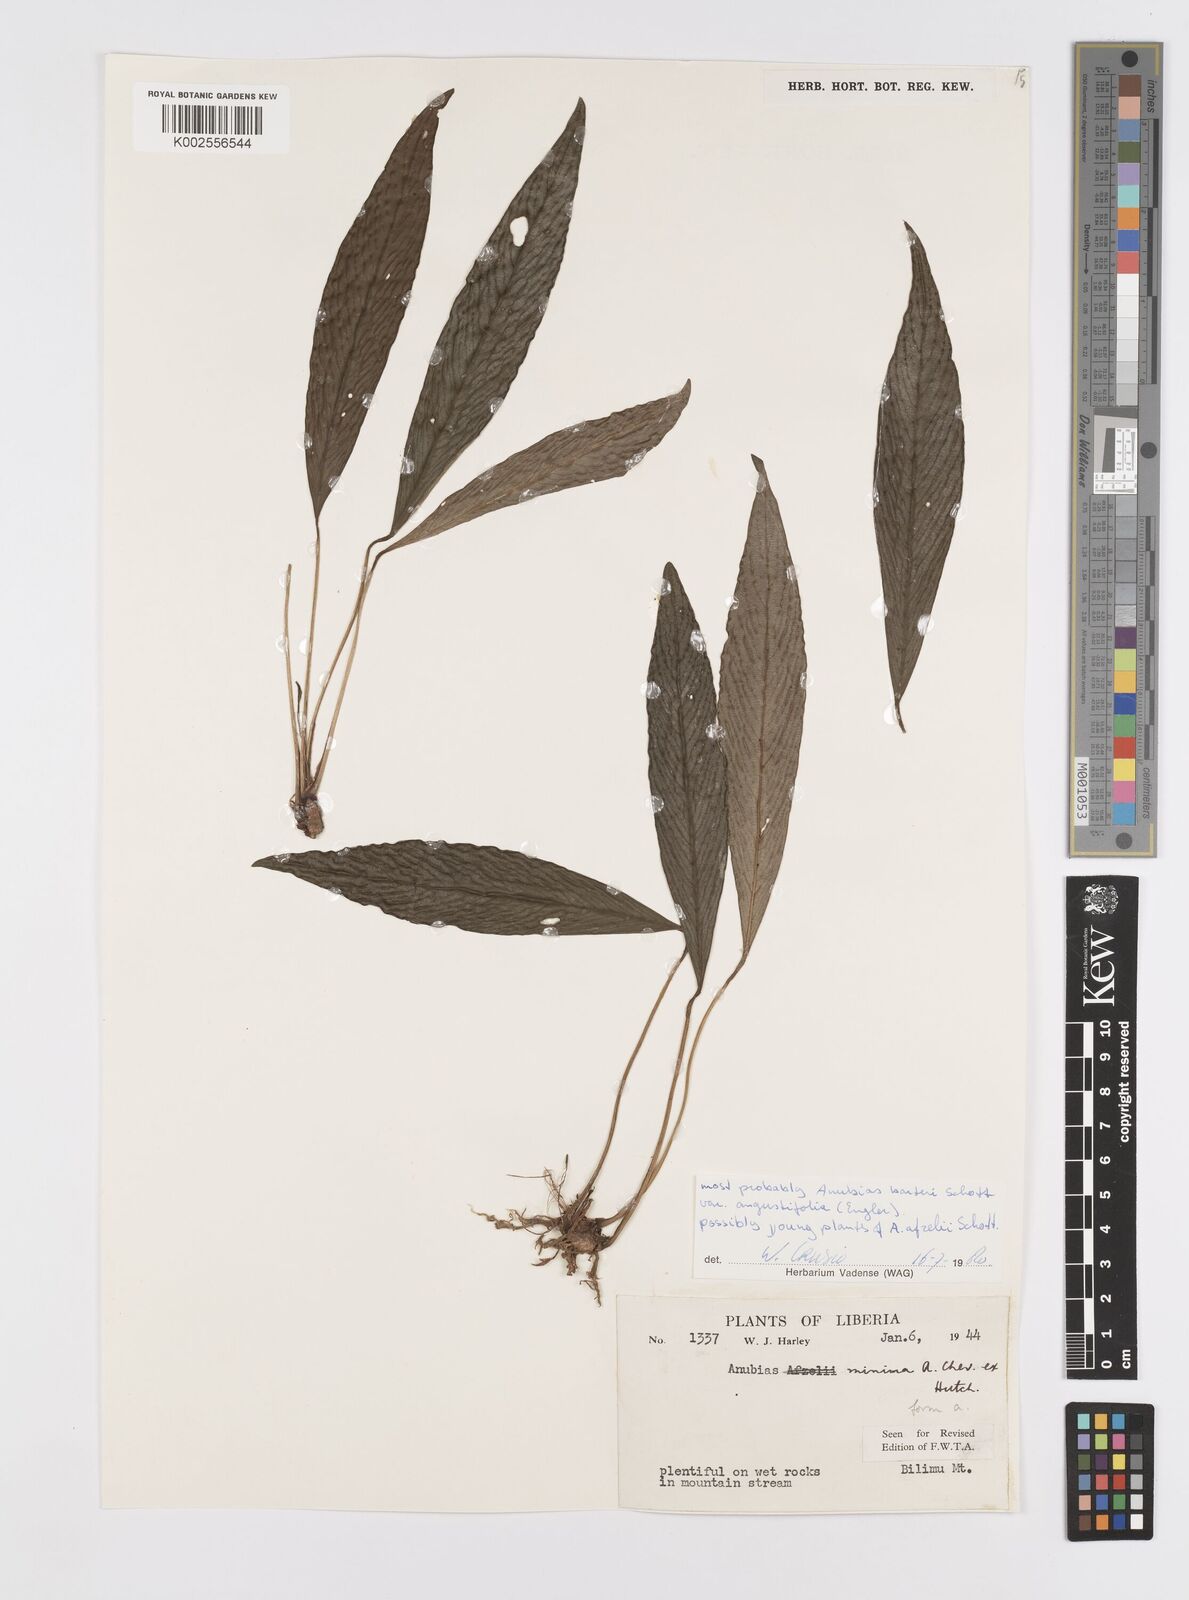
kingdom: Plantae
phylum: Tracheophyta
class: Liliopsida
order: Alismatales
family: Araceae
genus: Anubias
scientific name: Anubias barteri
